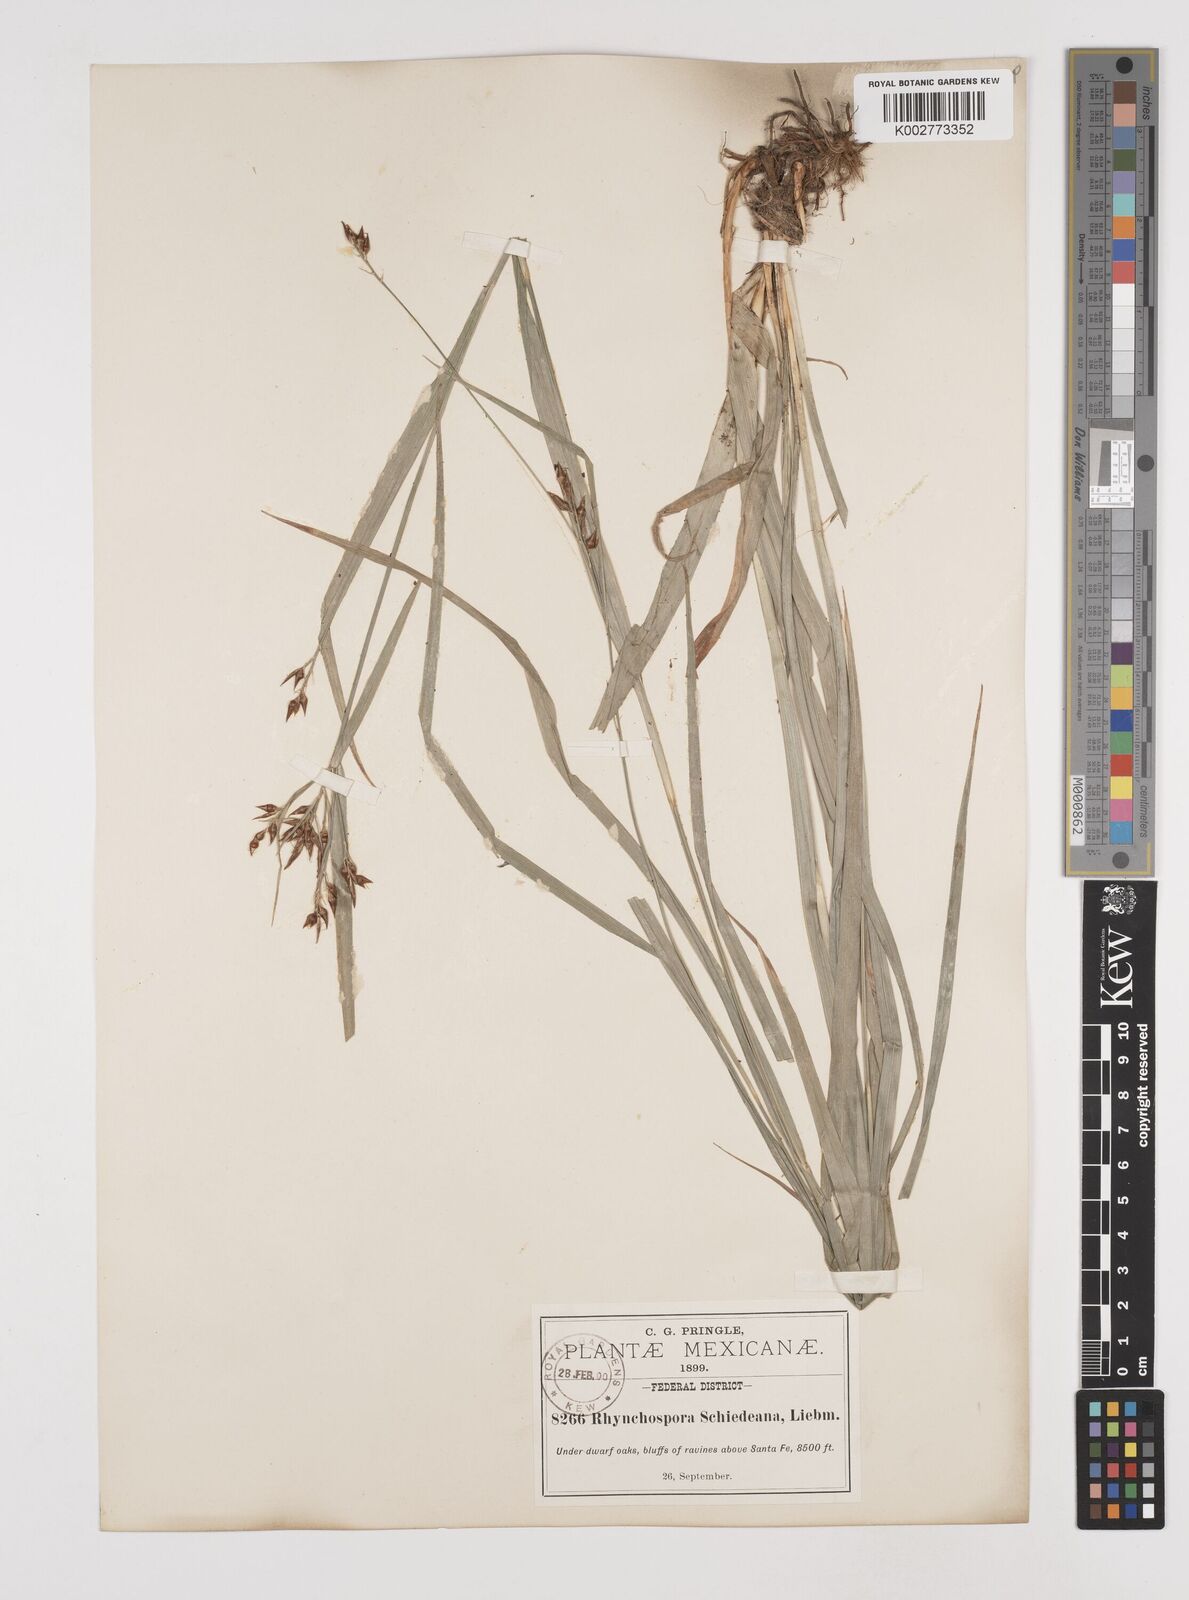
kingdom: Plantae
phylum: Tracheophyta
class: Liliopsida
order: Poales
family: Cyperaceae
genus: Rhynchospora
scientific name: Rhynchospora schiedeana
